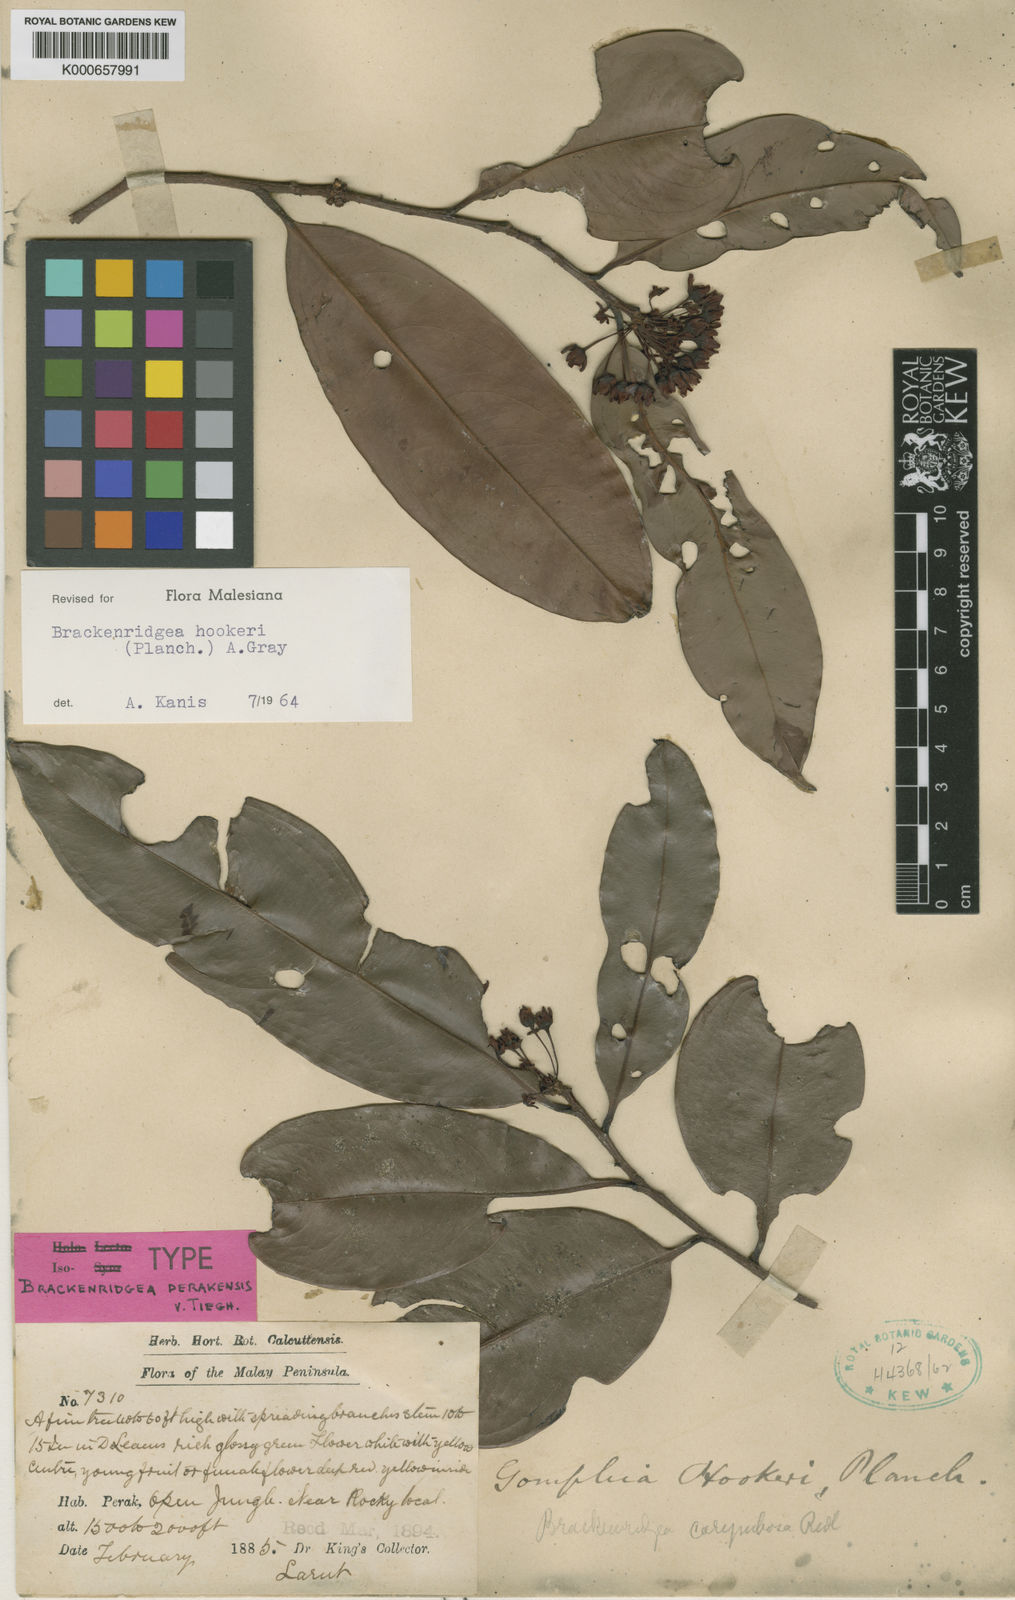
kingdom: Plantae
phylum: Tracheophyta
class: Magnoliopsida
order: Malpighiales
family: Ochnaceae
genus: Brackenridgea
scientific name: Brackenridgea elegantissima
